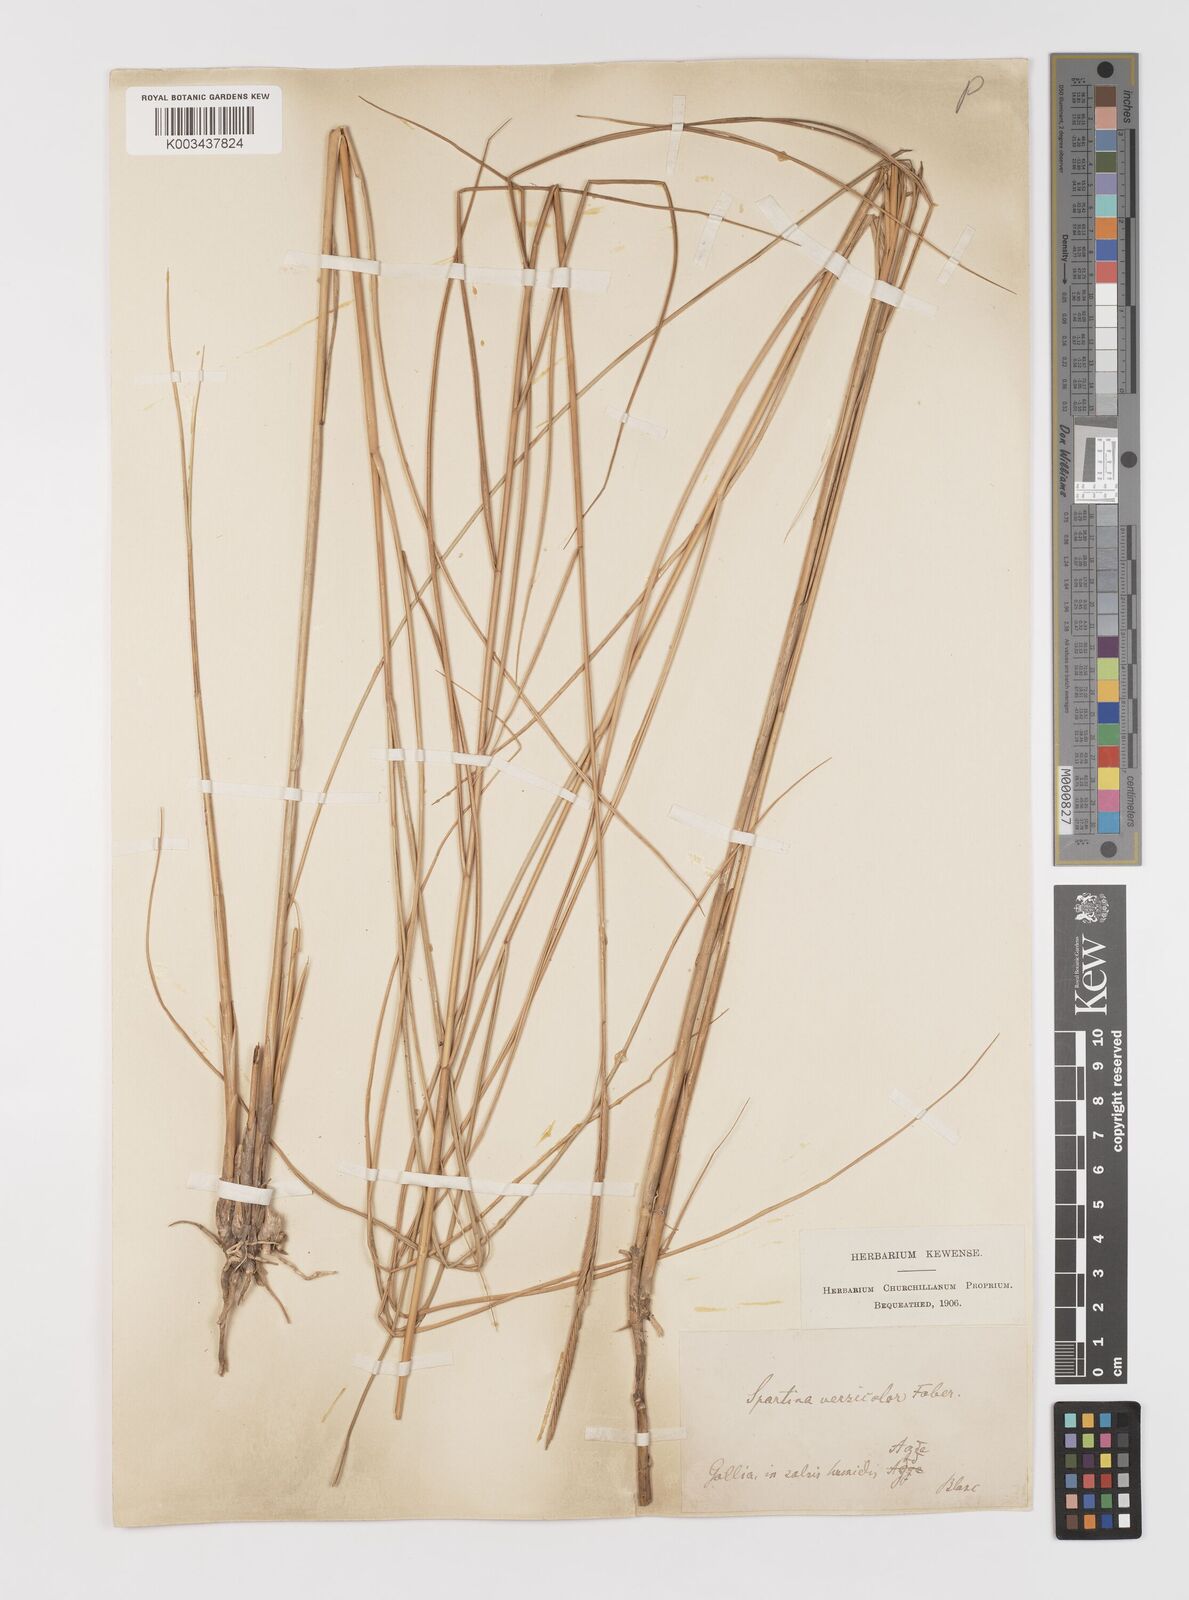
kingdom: Plantae
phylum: Tracheophyta
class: Liliopsida
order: Poales
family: Poaceae
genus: Sporobolus
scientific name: Sporobolus versicolor
